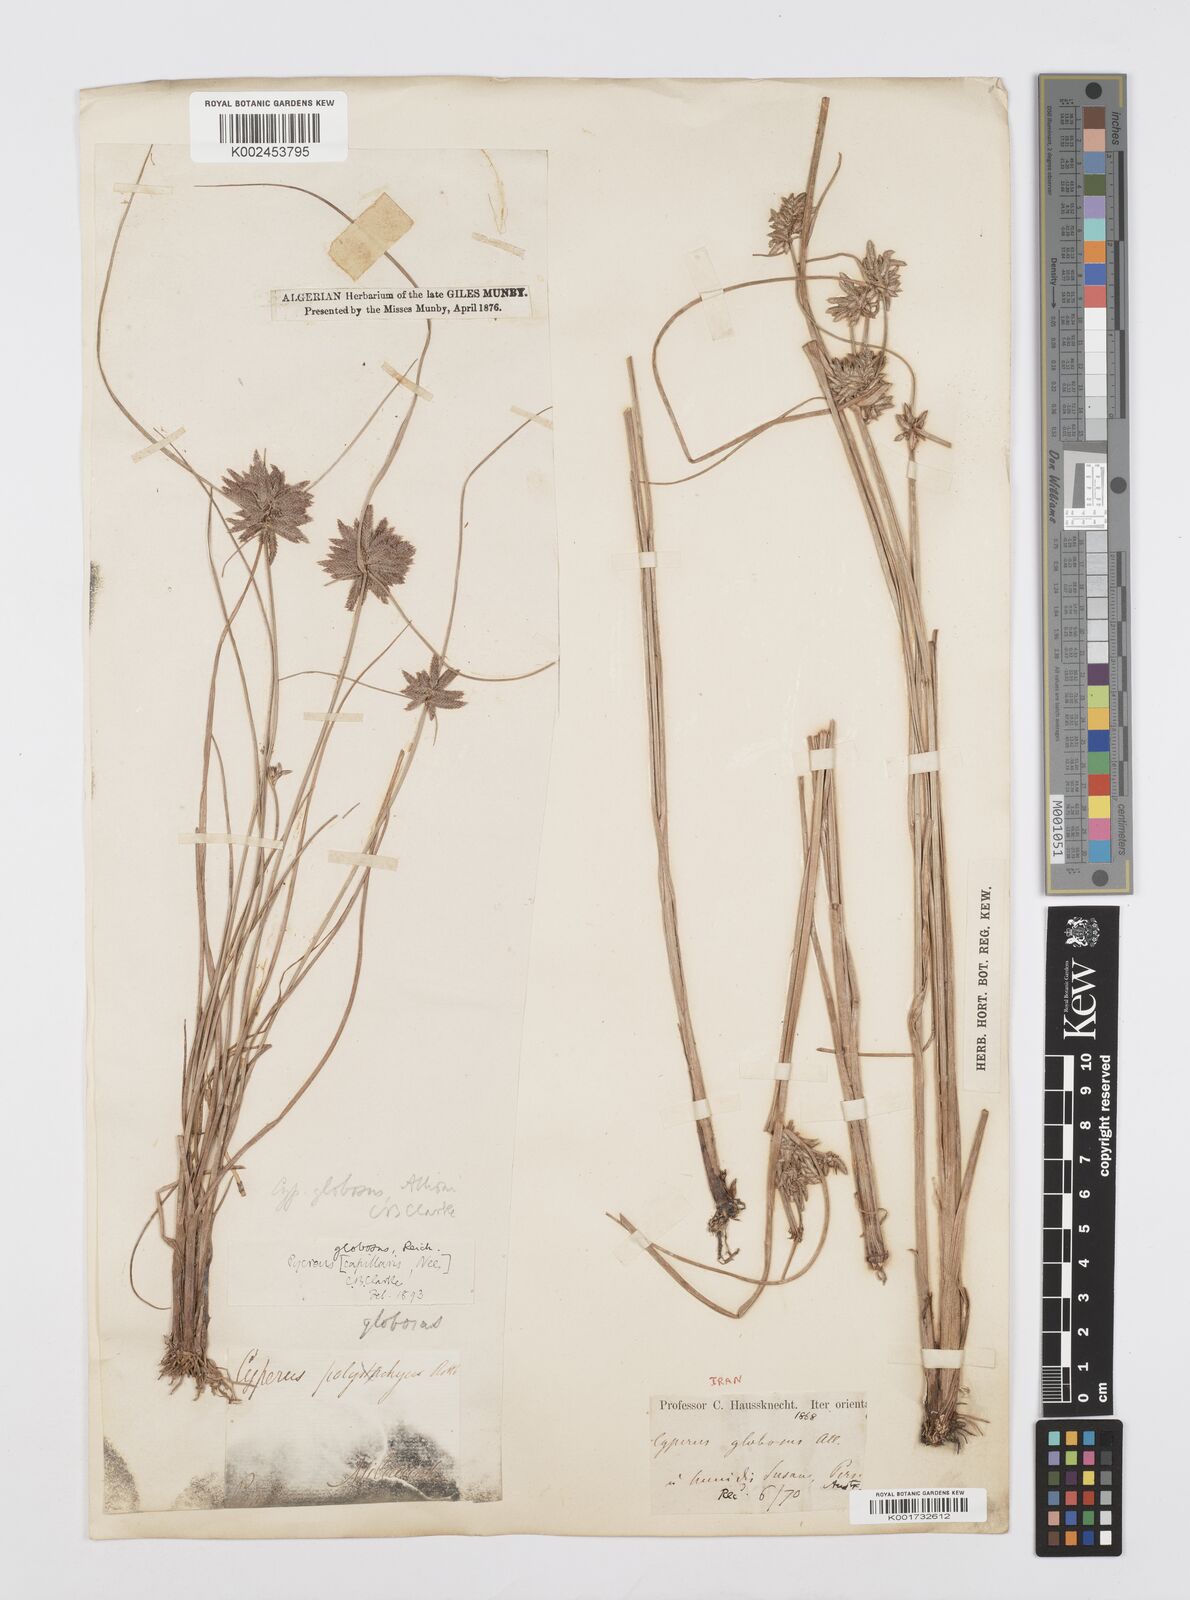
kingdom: Plantae
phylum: Tracheophyta
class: Liliopsida
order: Poales
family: Cyperaceae
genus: Cyperus
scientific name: Cyperus flavidus
